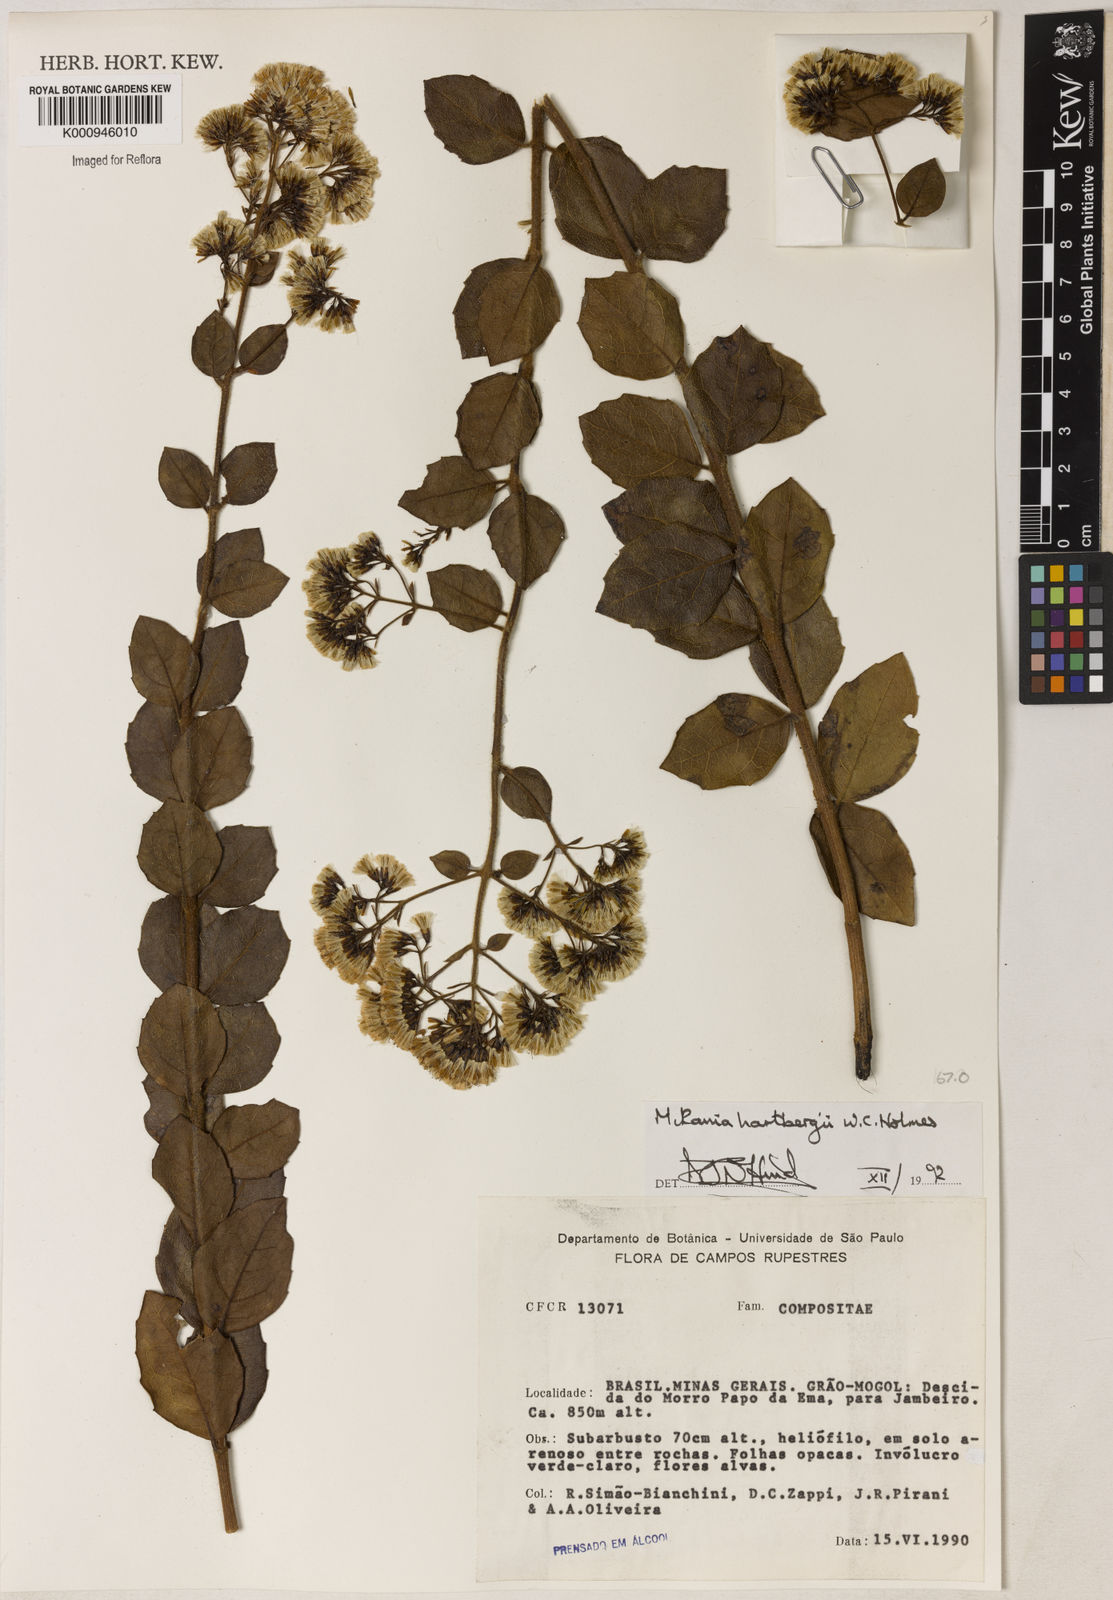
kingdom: Plantae
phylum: Tracheophyta
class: Magnoliopsida
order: Asterales
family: Asteraceae
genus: Mikania
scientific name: Mikania hartbergii
